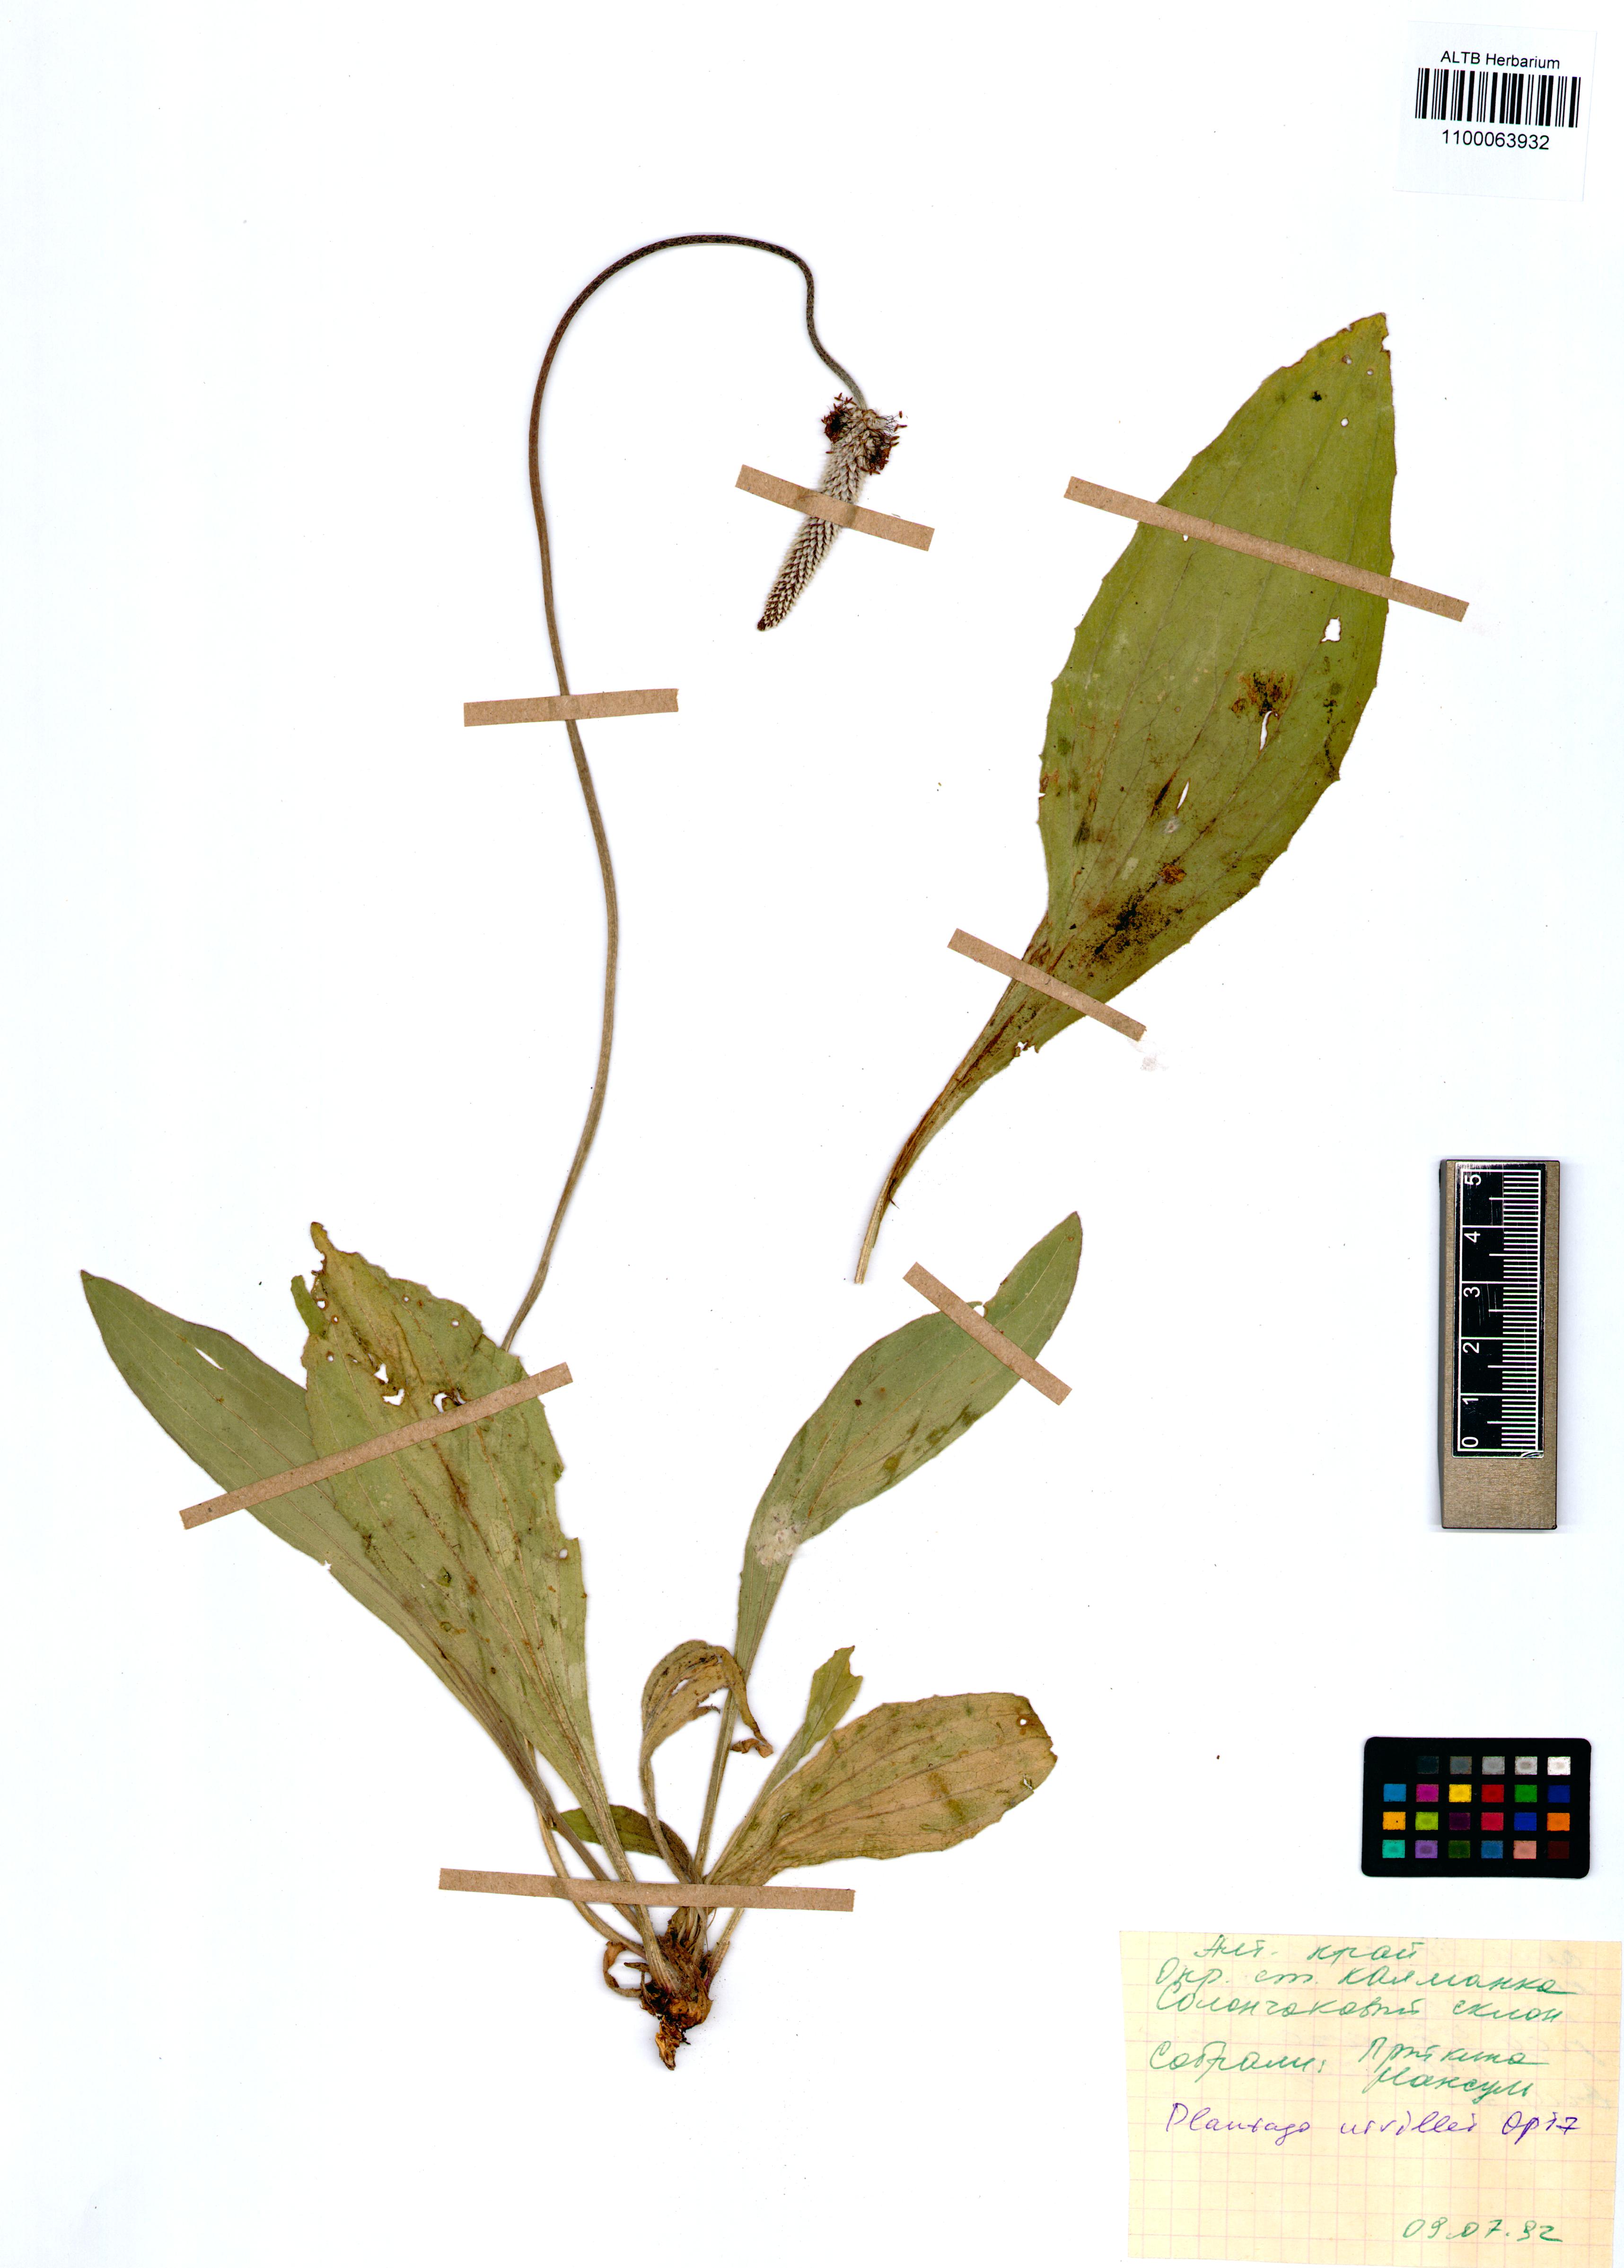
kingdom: Plantae
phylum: Tracheophyta
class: Magnoliopsida
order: Lamiales
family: Plantaginaceae
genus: Plantago
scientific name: Plantago urvillei
